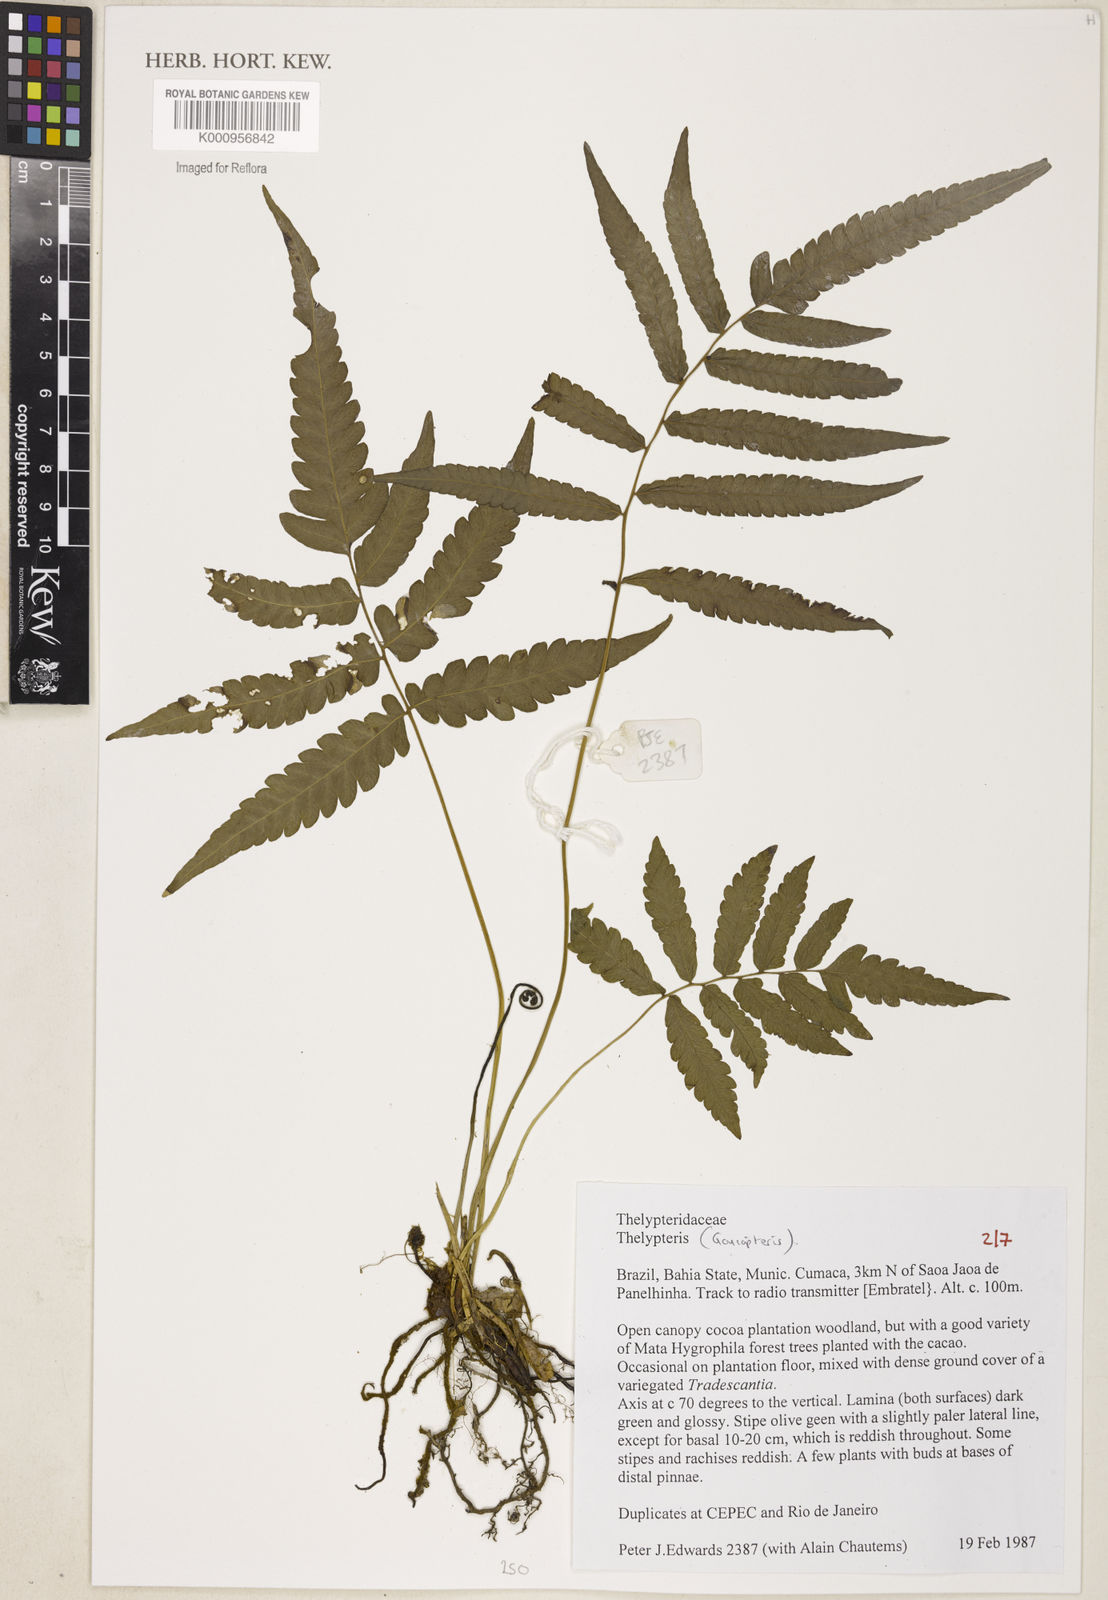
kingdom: Plantae
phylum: Tracheophyta
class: Polypodiopsida
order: Polypodiales
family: Thelypteridaceae
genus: Goniopteris
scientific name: Goniopteris
